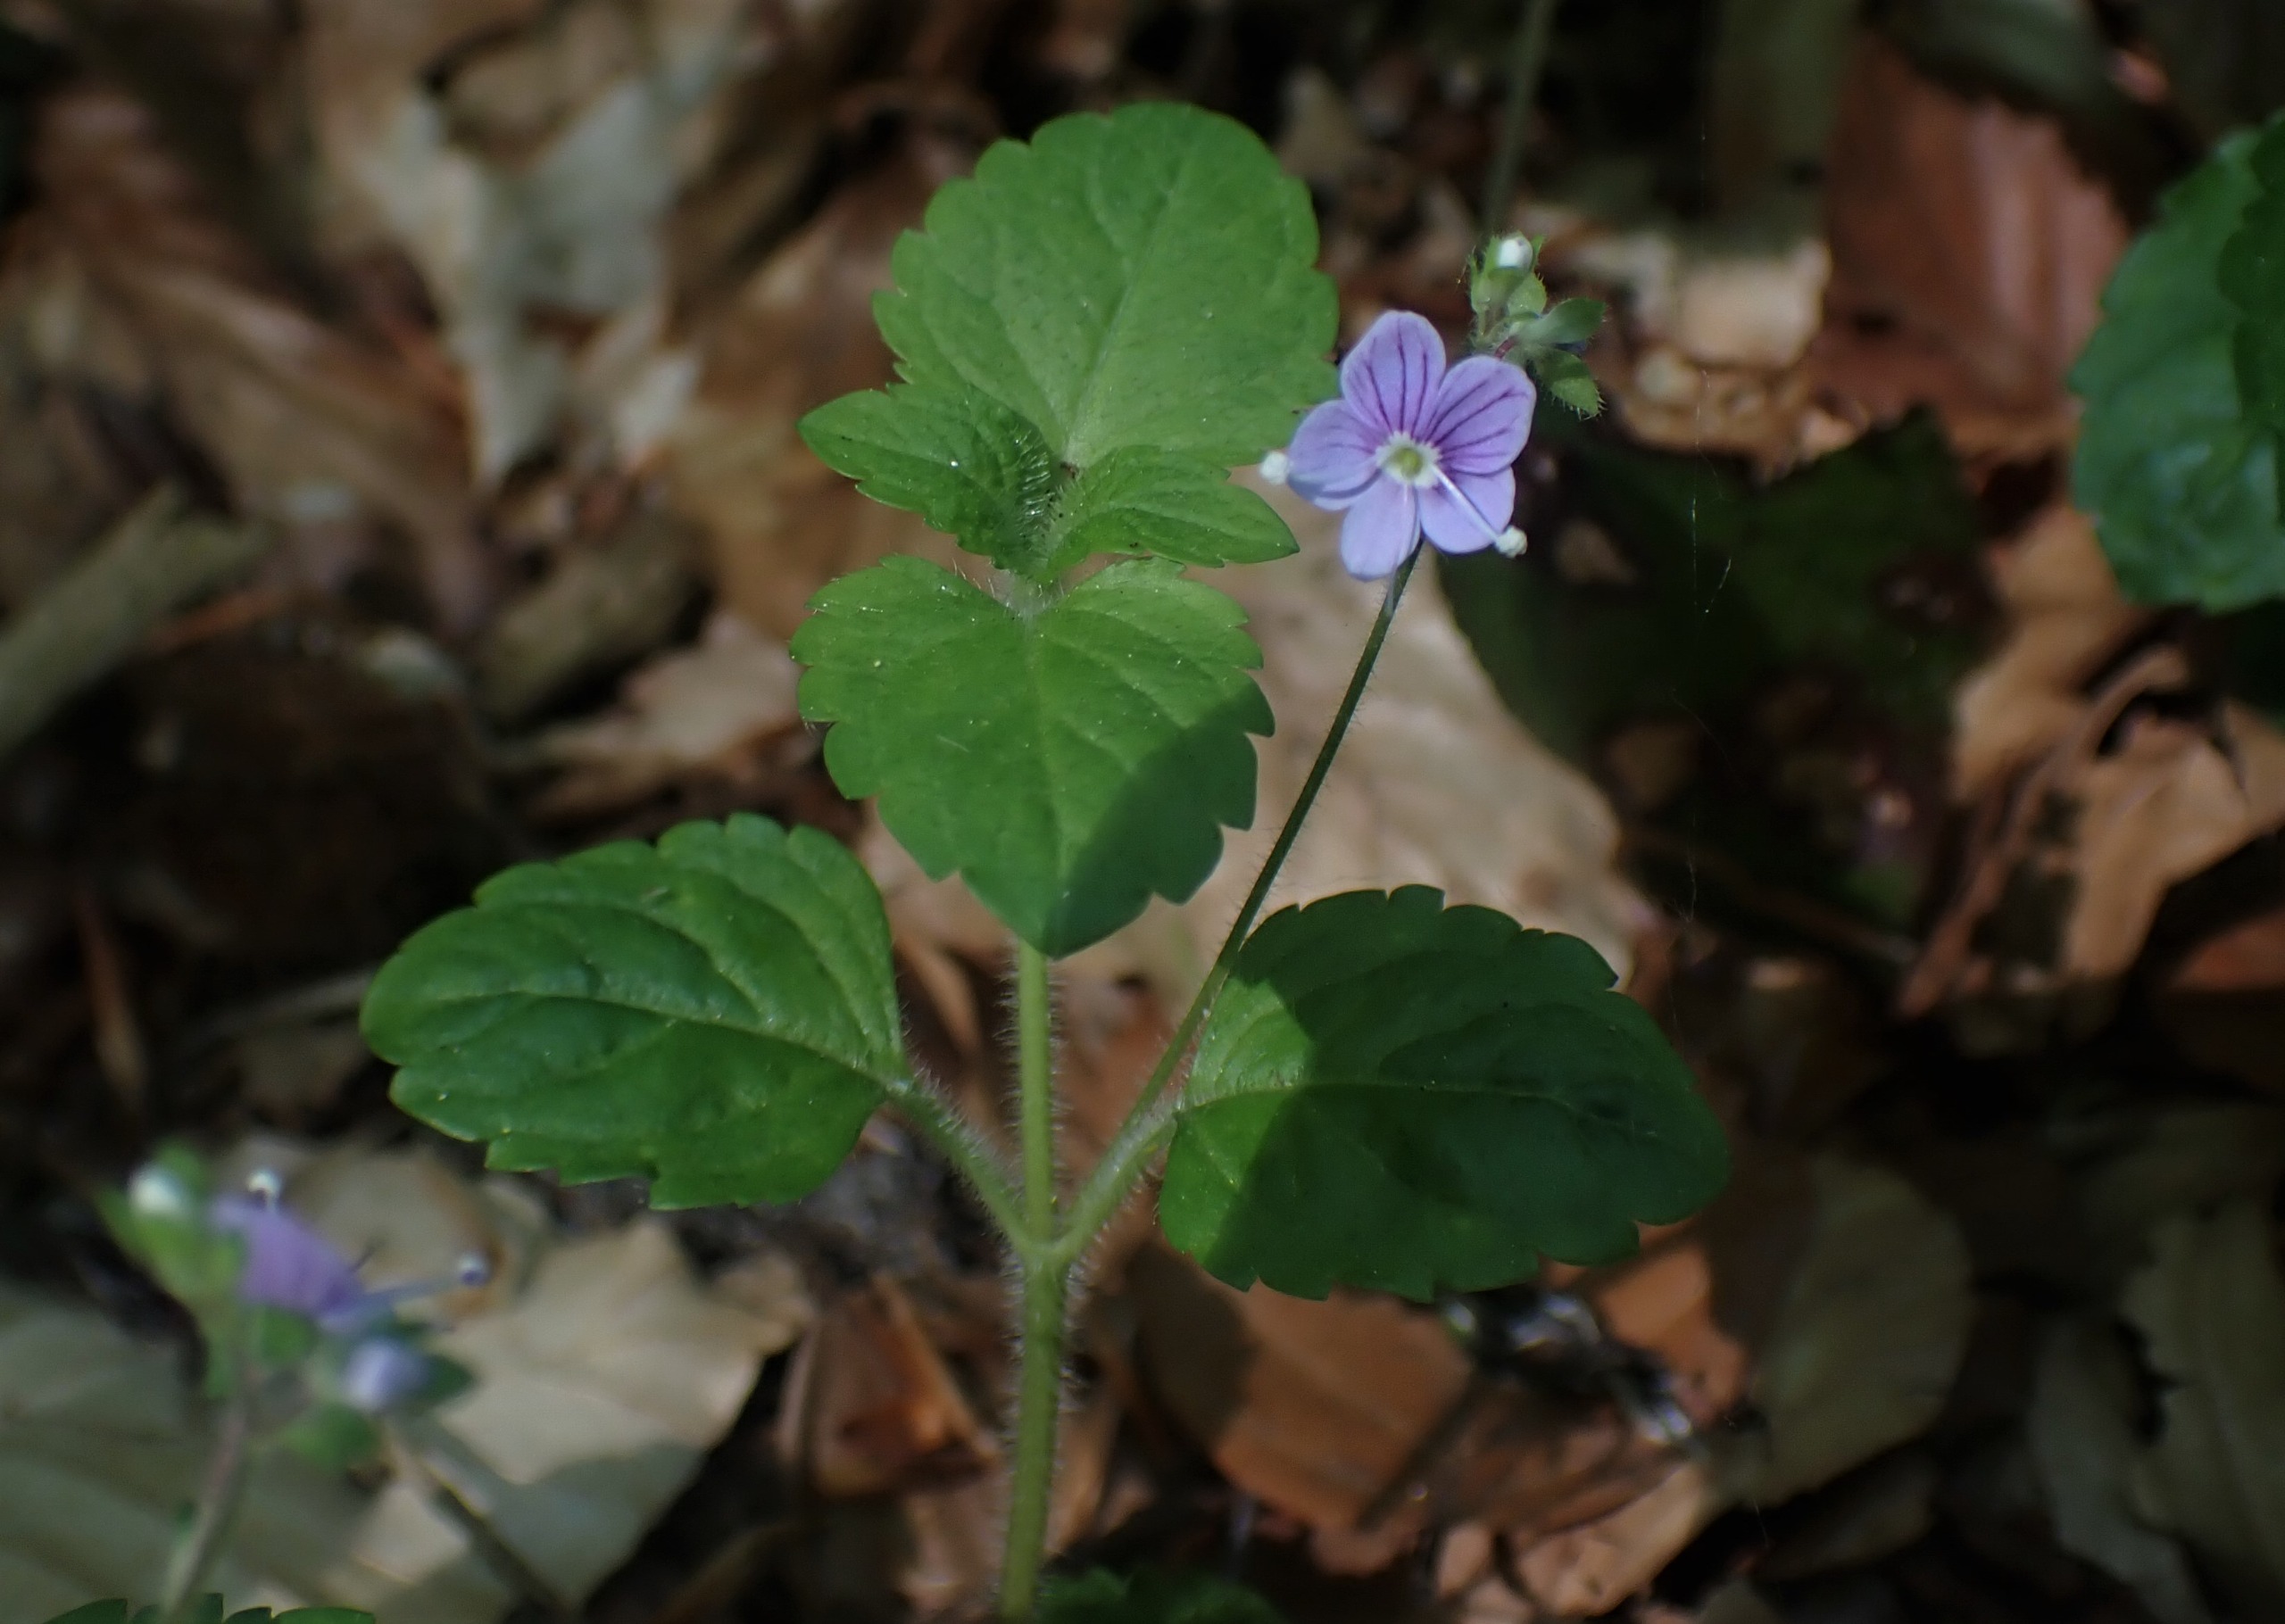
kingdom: Plantae
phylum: Tracheophyta
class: Magnoliopsida
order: Lamiales
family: Plantaginaceae
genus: Veronica
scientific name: Veronica montana
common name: Bjerg-ærenpris
